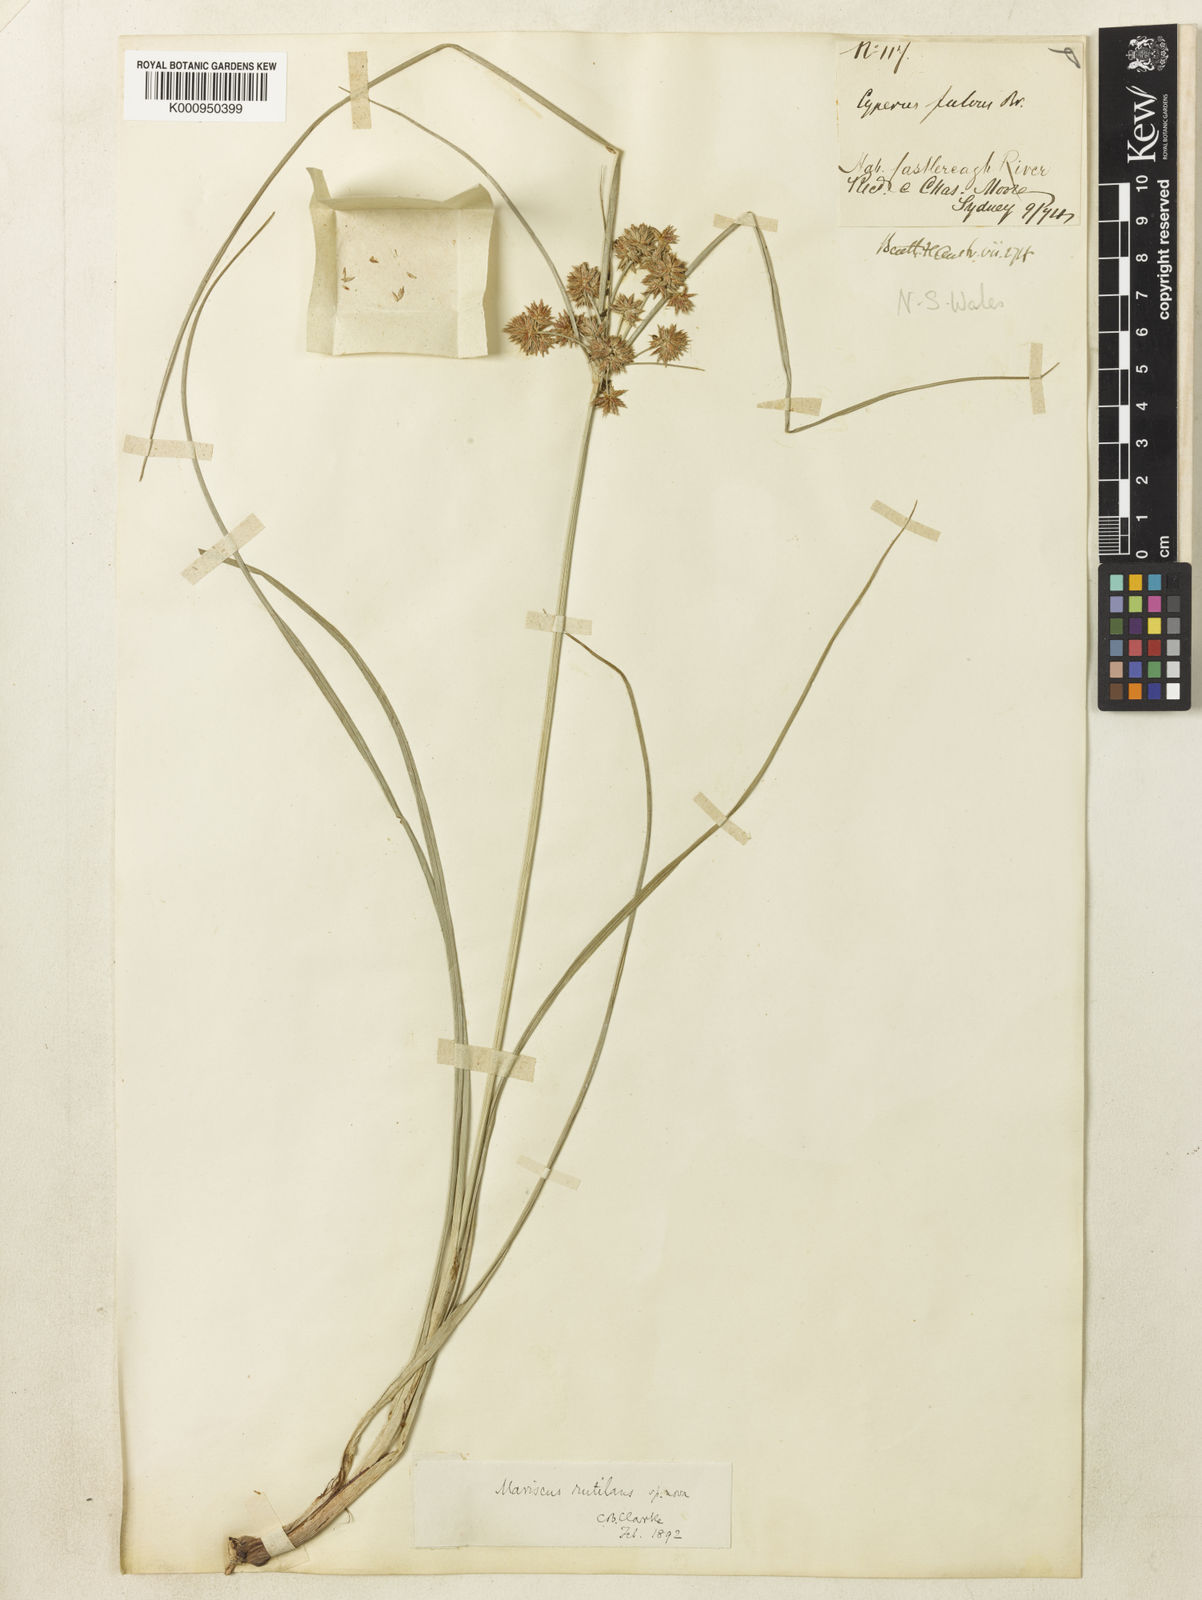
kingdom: Plantae
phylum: Tracheophyta
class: Liliopsida
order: Poales
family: Cyperaceae
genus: Cyperus
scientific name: Cyperus lhotskyanus
